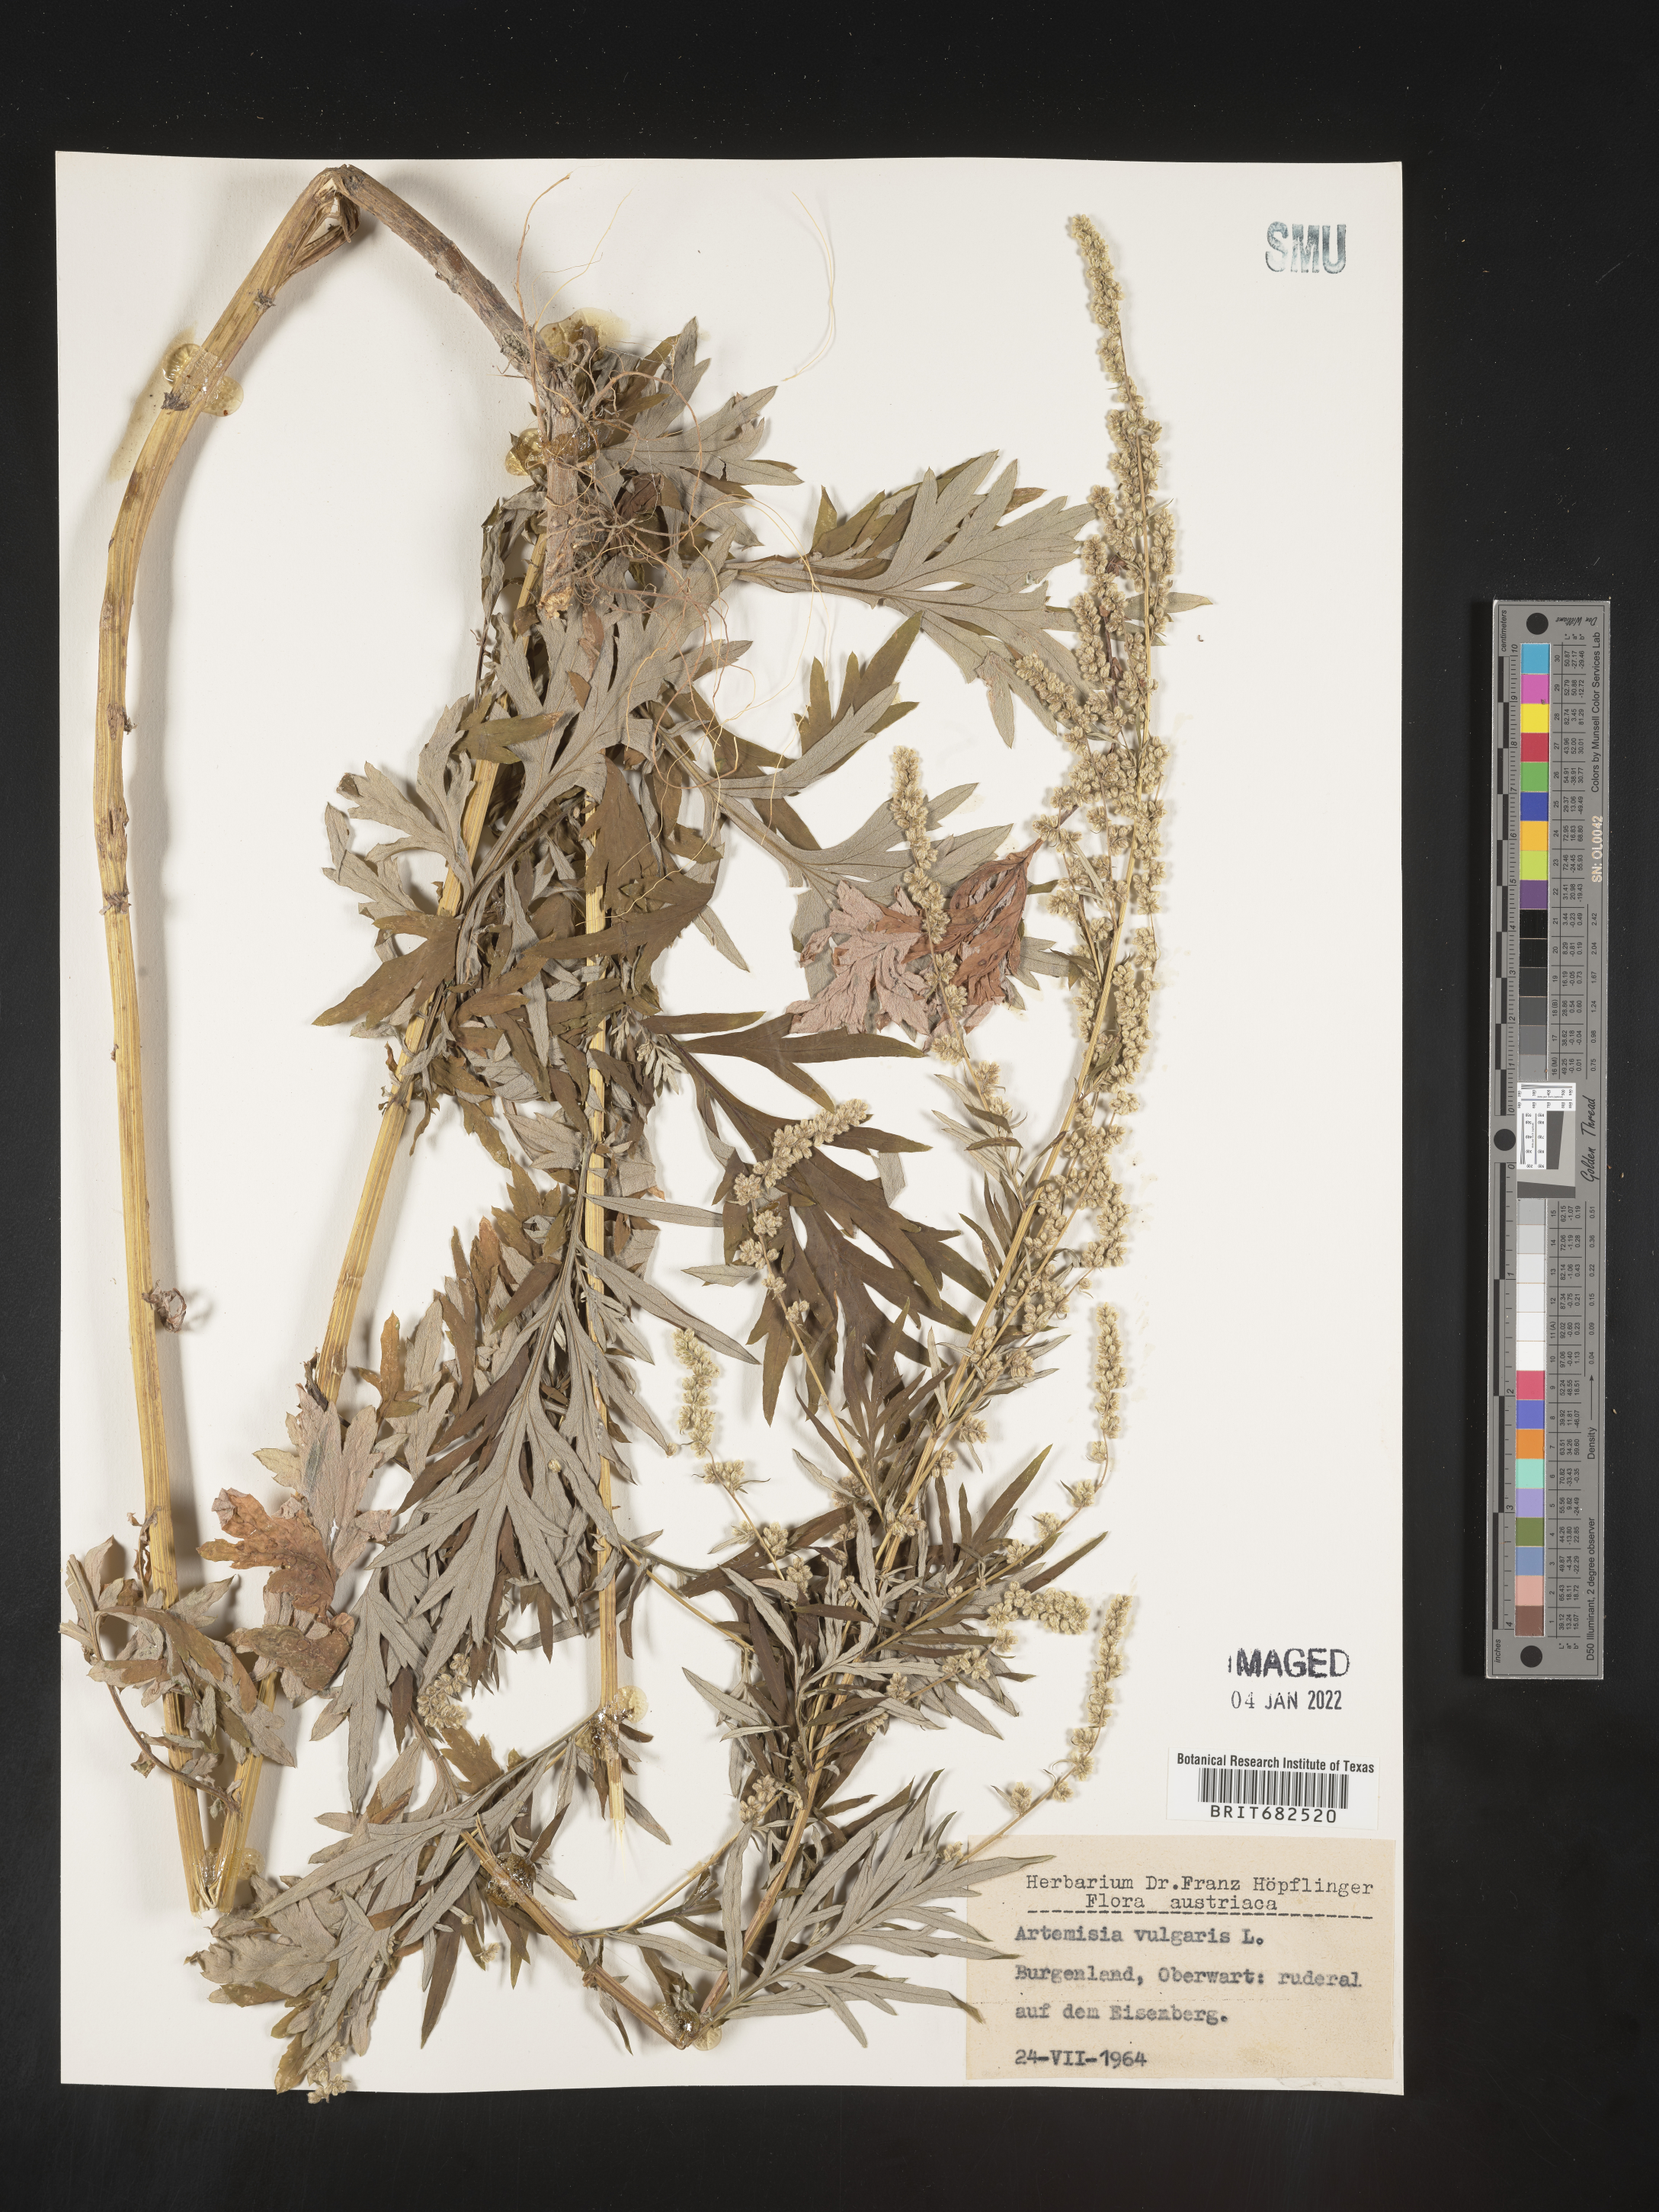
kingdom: Plantae
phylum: Tracheophyta
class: Magnoliopsida
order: Asterales
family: Asteraceae
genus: Artemisia
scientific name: Artemisia
